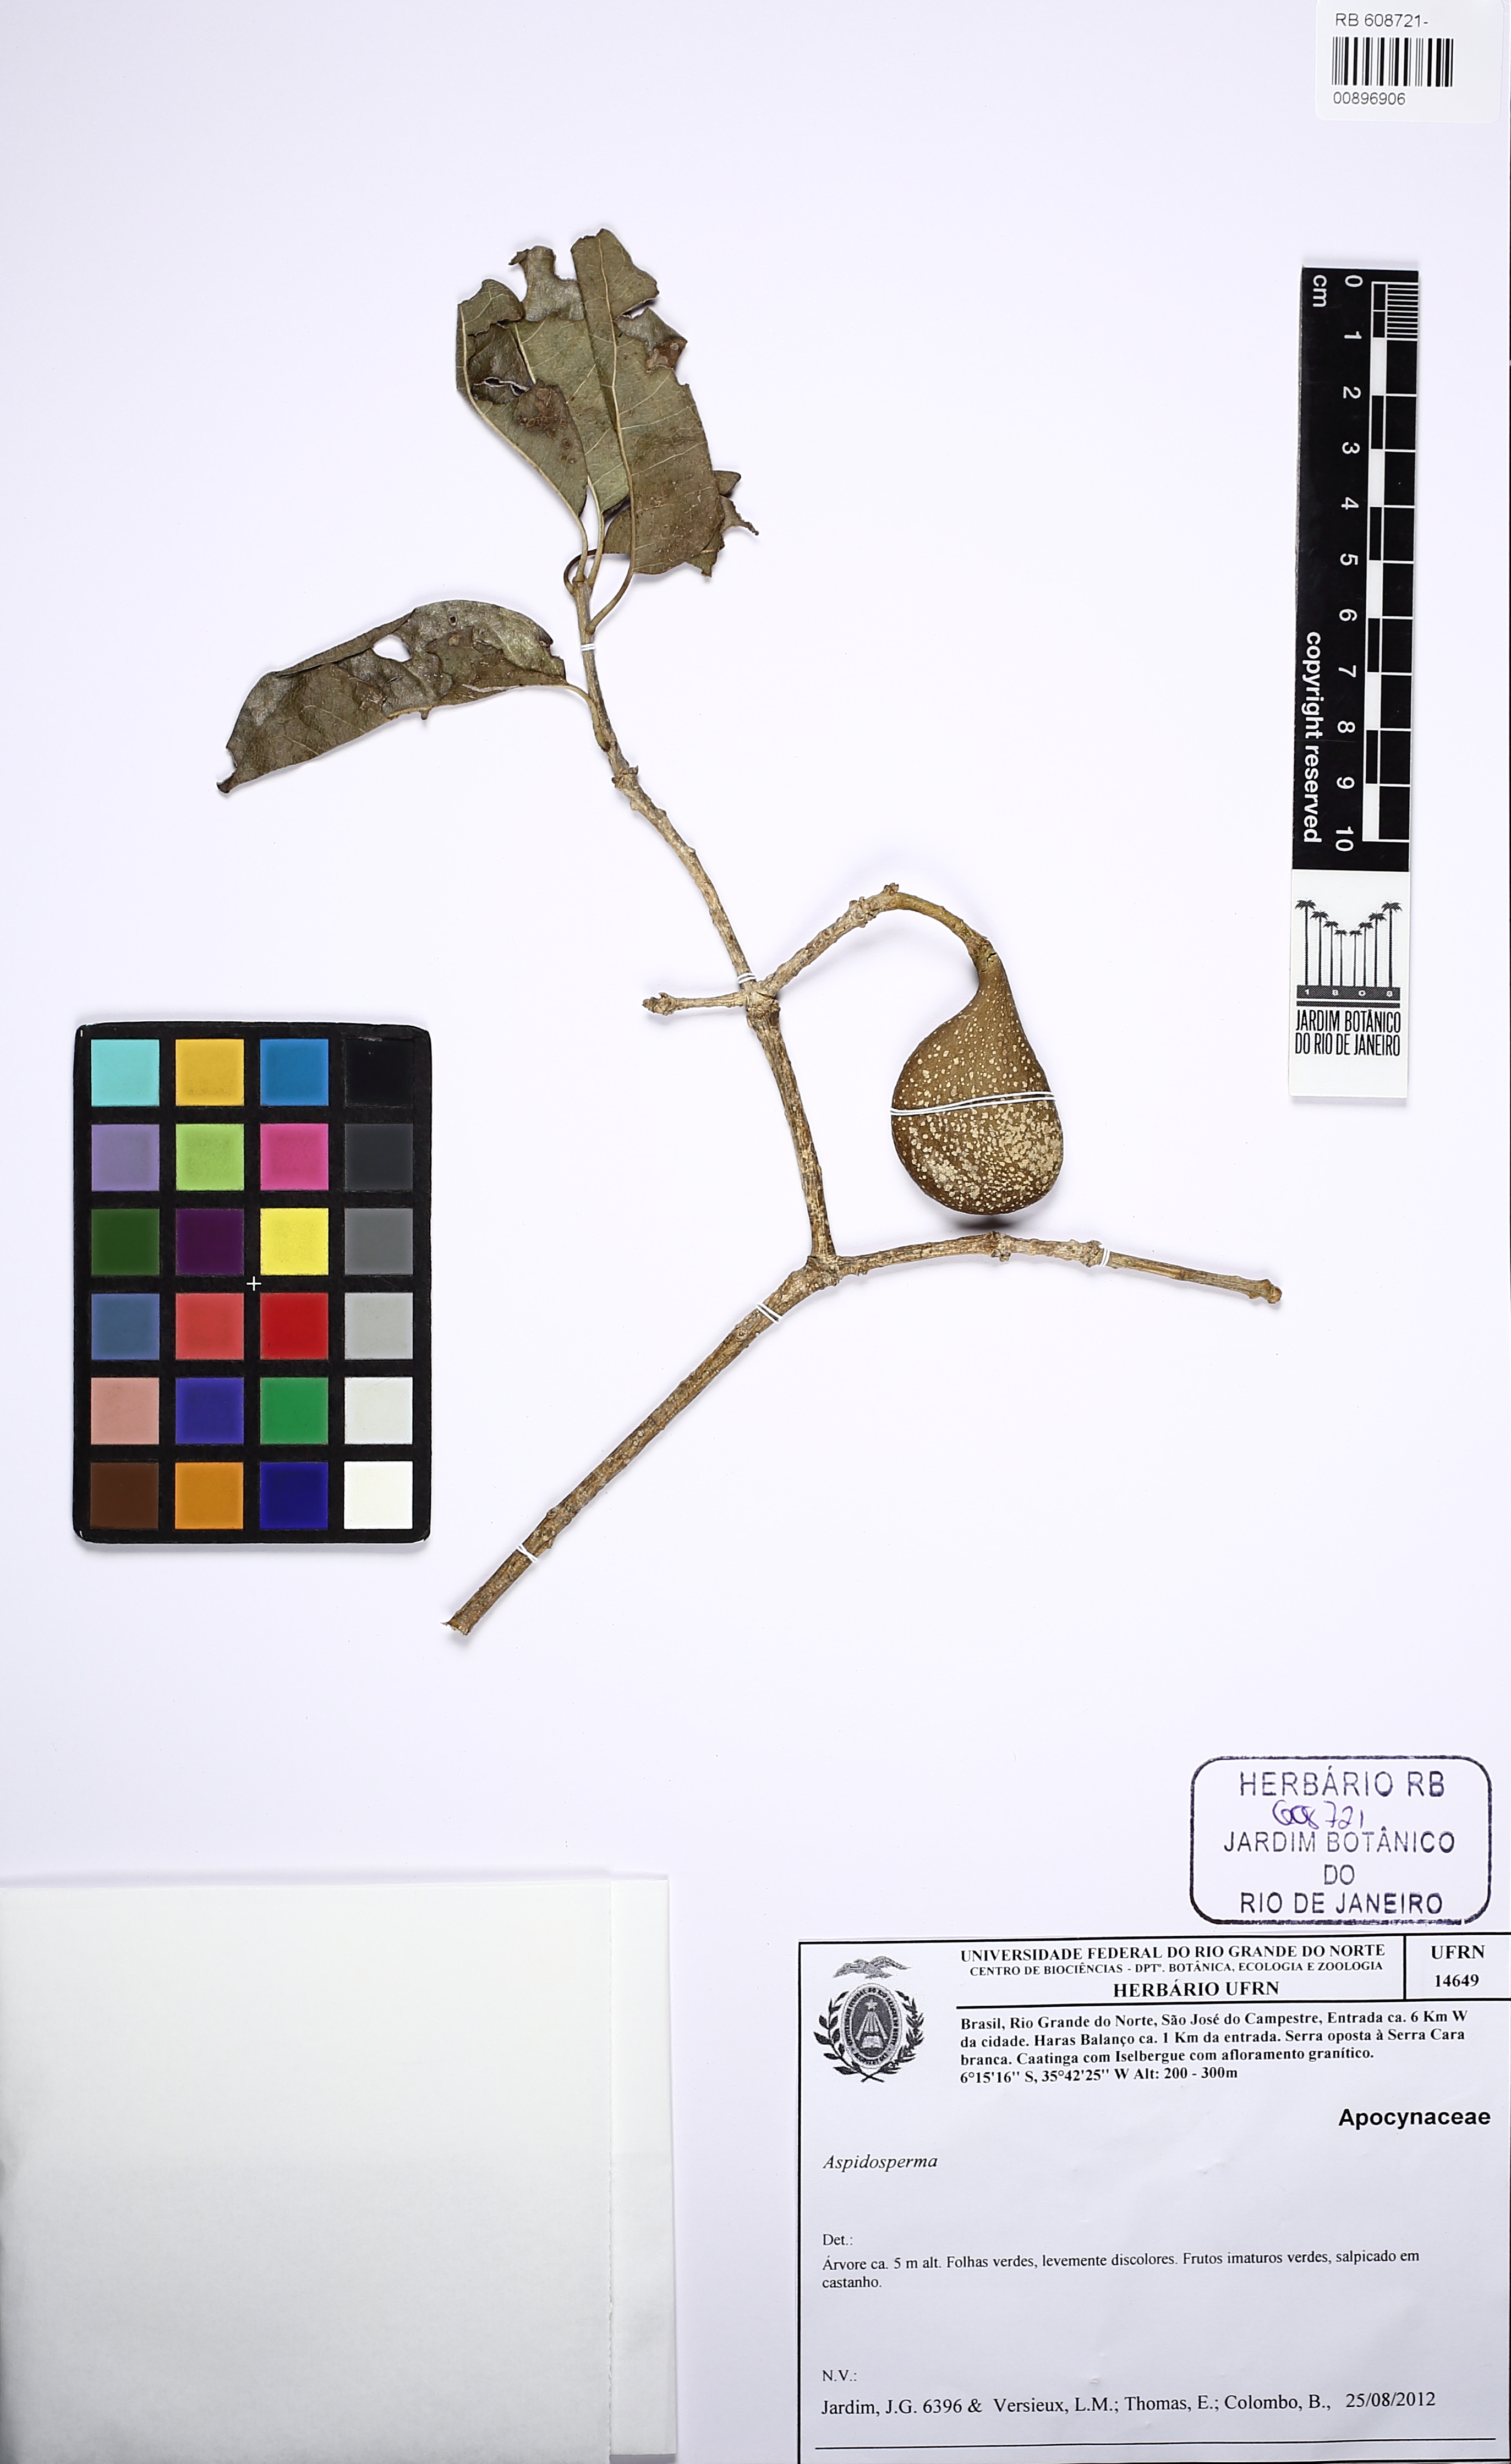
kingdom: Plantae
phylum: Tracheophyta
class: Magnoliopsida
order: Gentianales
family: Apocynaceae
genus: Aspidosperma
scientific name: Aspidosperma pyricollum
